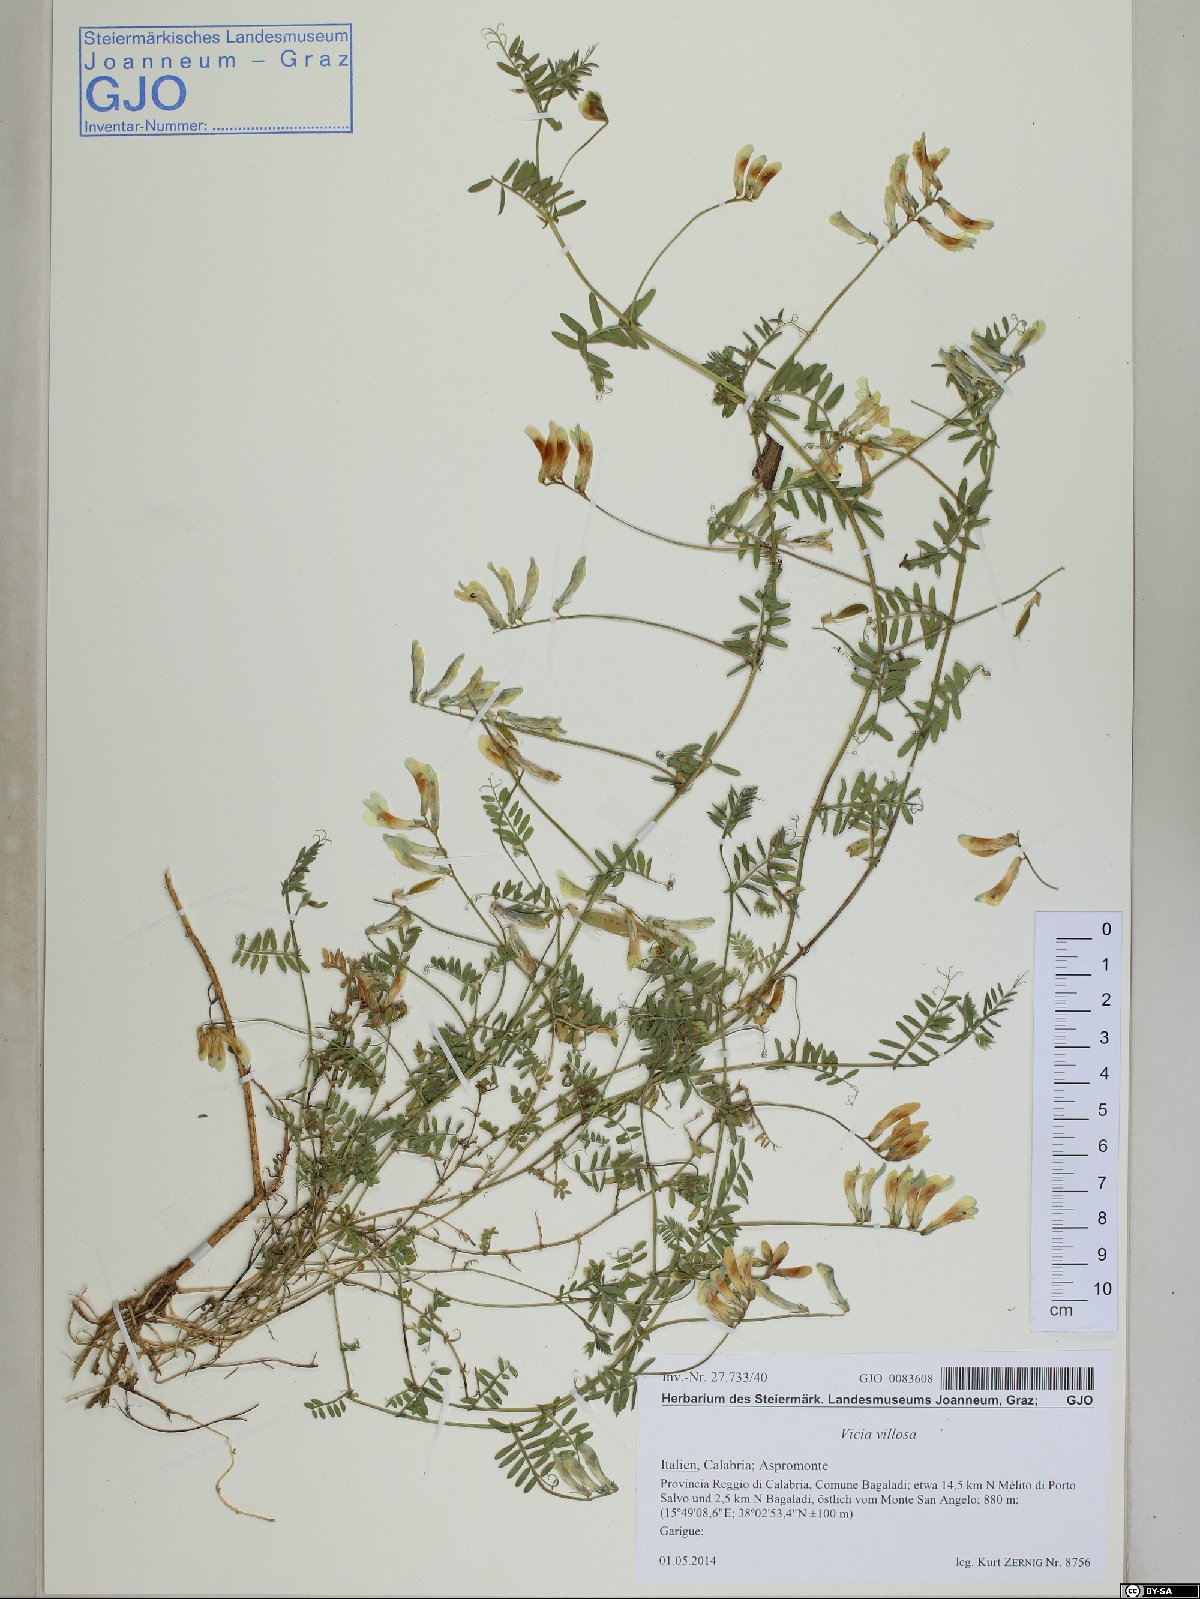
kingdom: Plantae
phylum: Tracheophyta
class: Magnoliopsida
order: Fabales
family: Fabaceae
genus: Vicia
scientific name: Vicia villosa
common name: Fodder vetch
